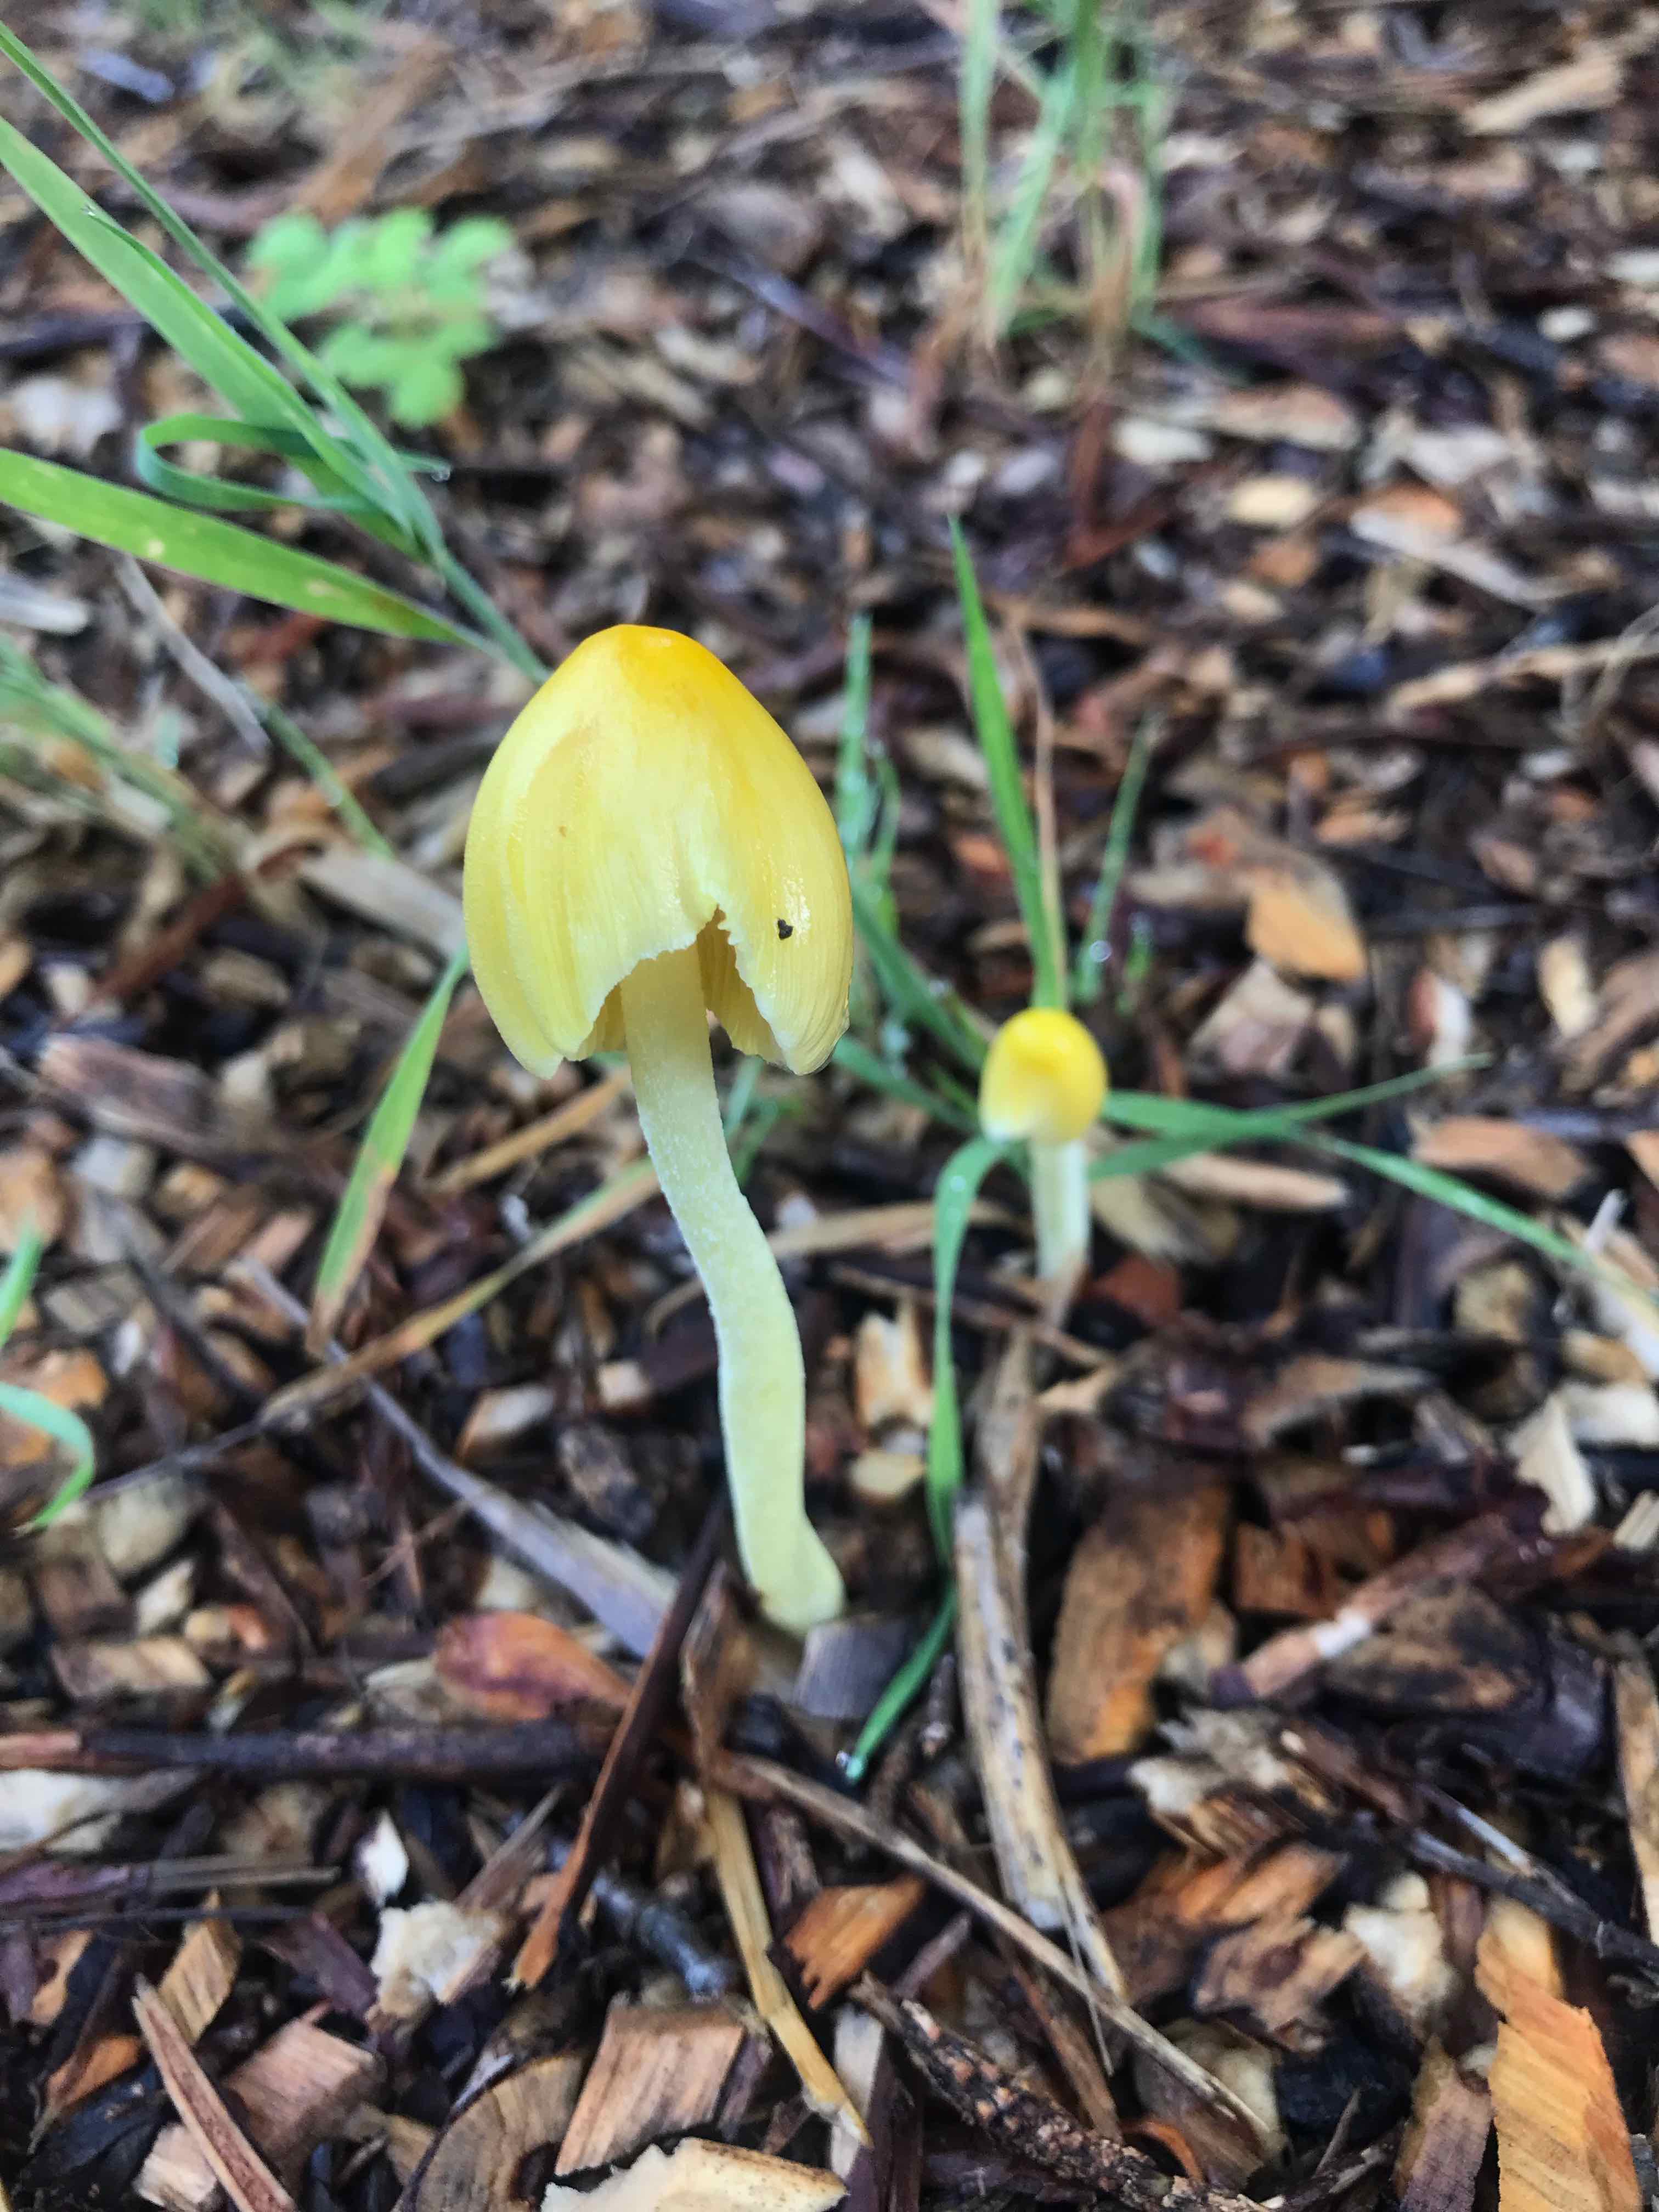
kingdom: Fungi
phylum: Basidiomycota
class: Agaricomycetes
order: Agaricales
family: Bolbitiaceae
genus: Bolbitius
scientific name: Bolbitius titubans
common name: almindelig gulhat
